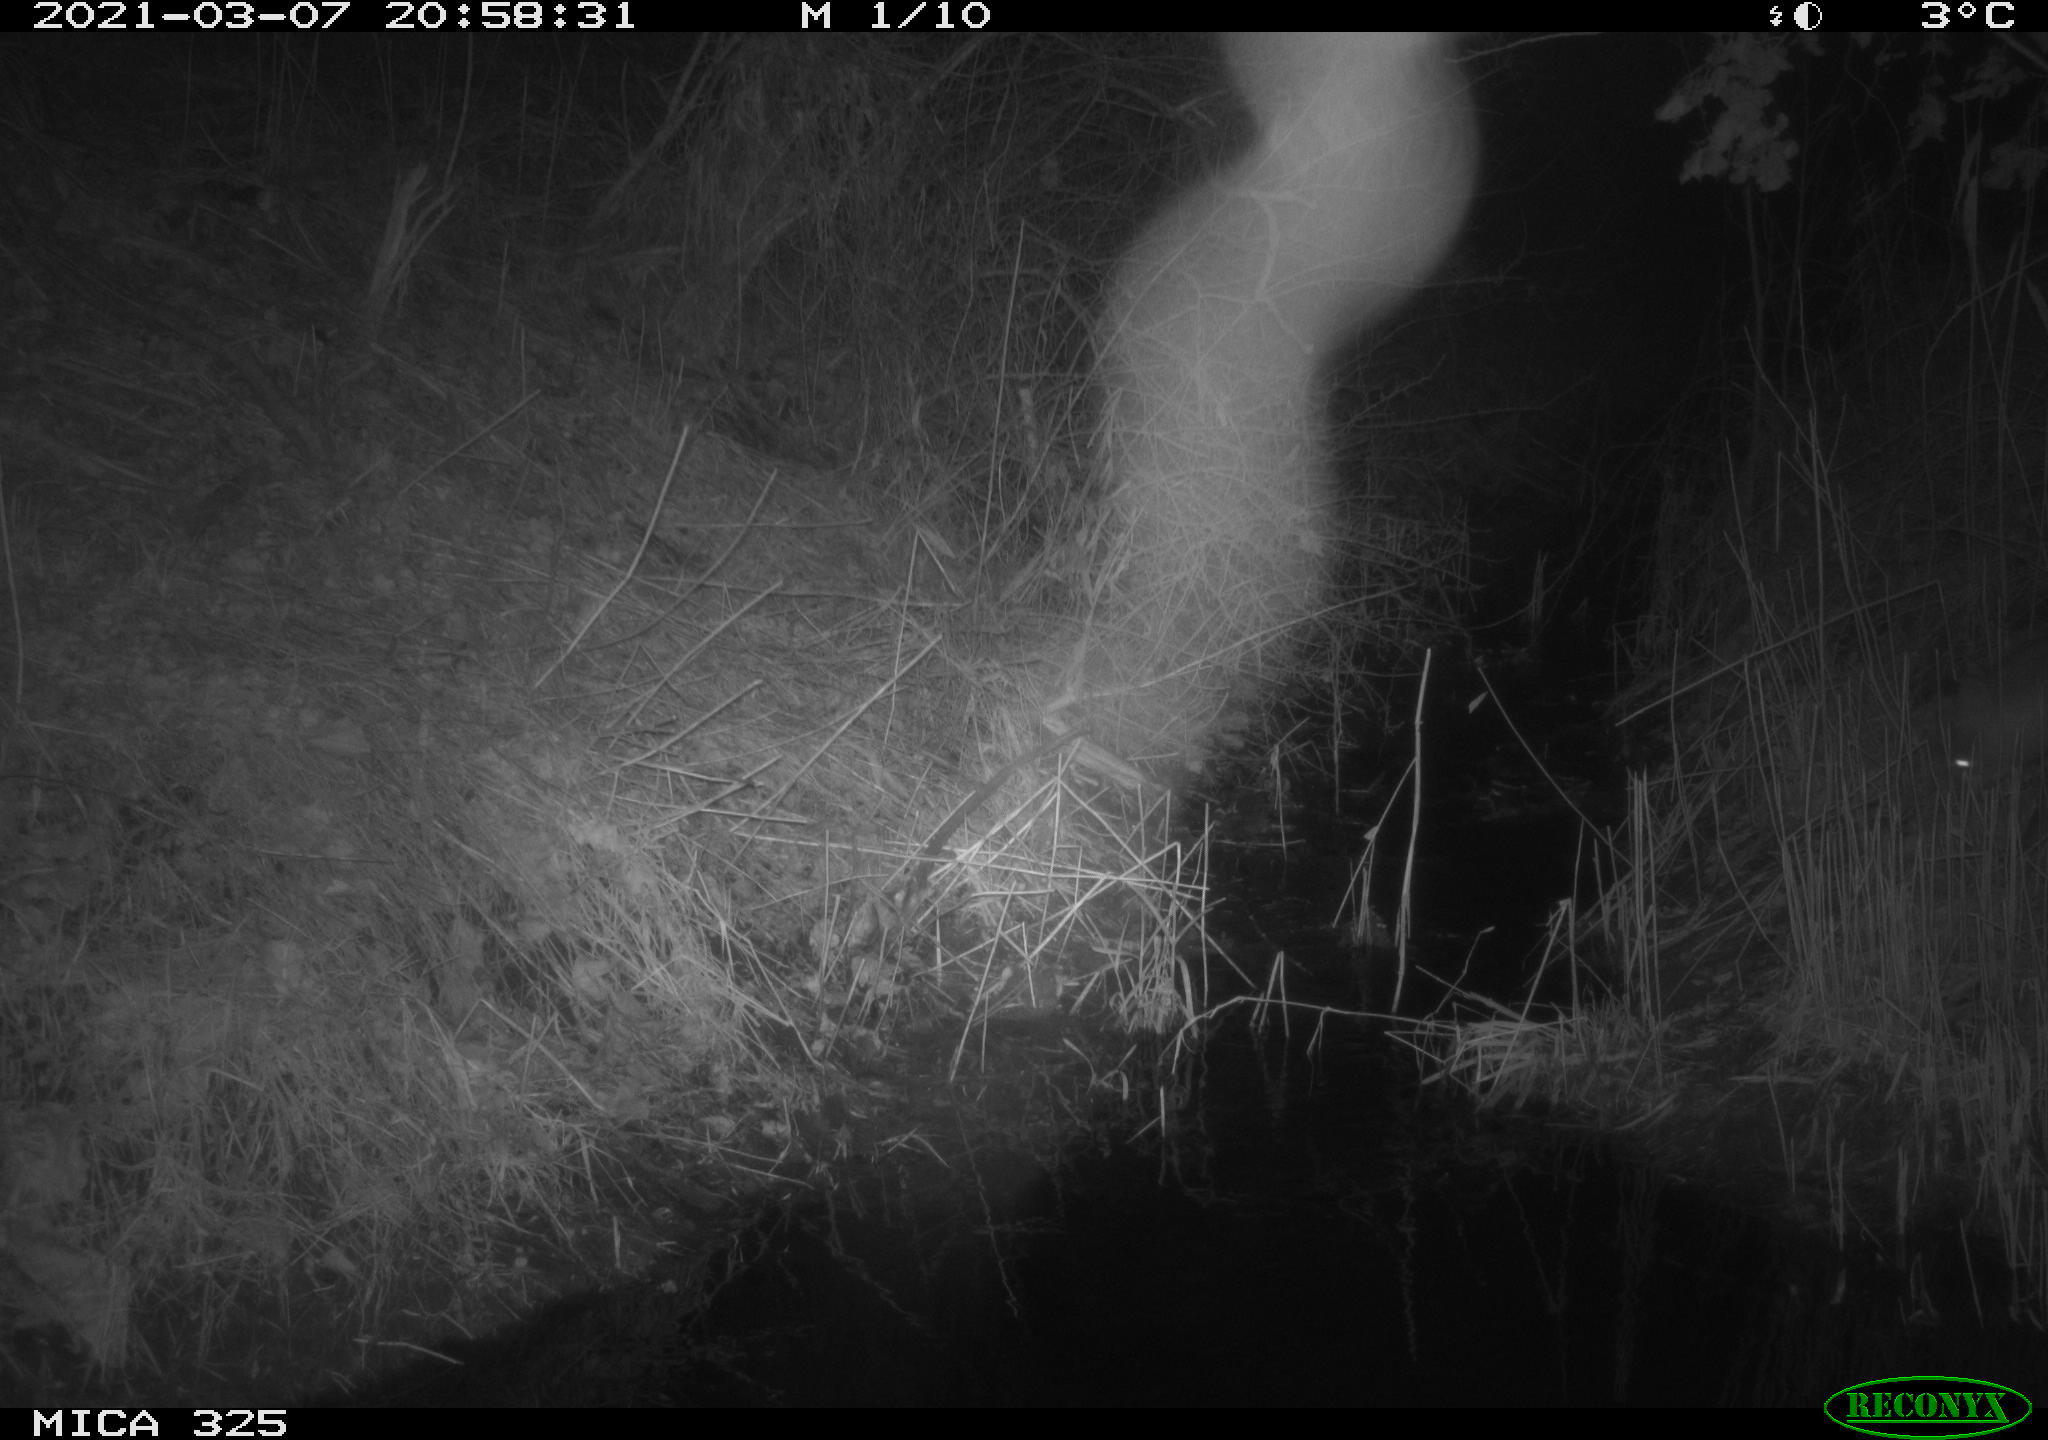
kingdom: Animalia
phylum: Chordata
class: Mammalia
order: Carnivora
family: Canidae
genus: Vulpes
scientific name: Vulpes vulpes
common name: Red fox
